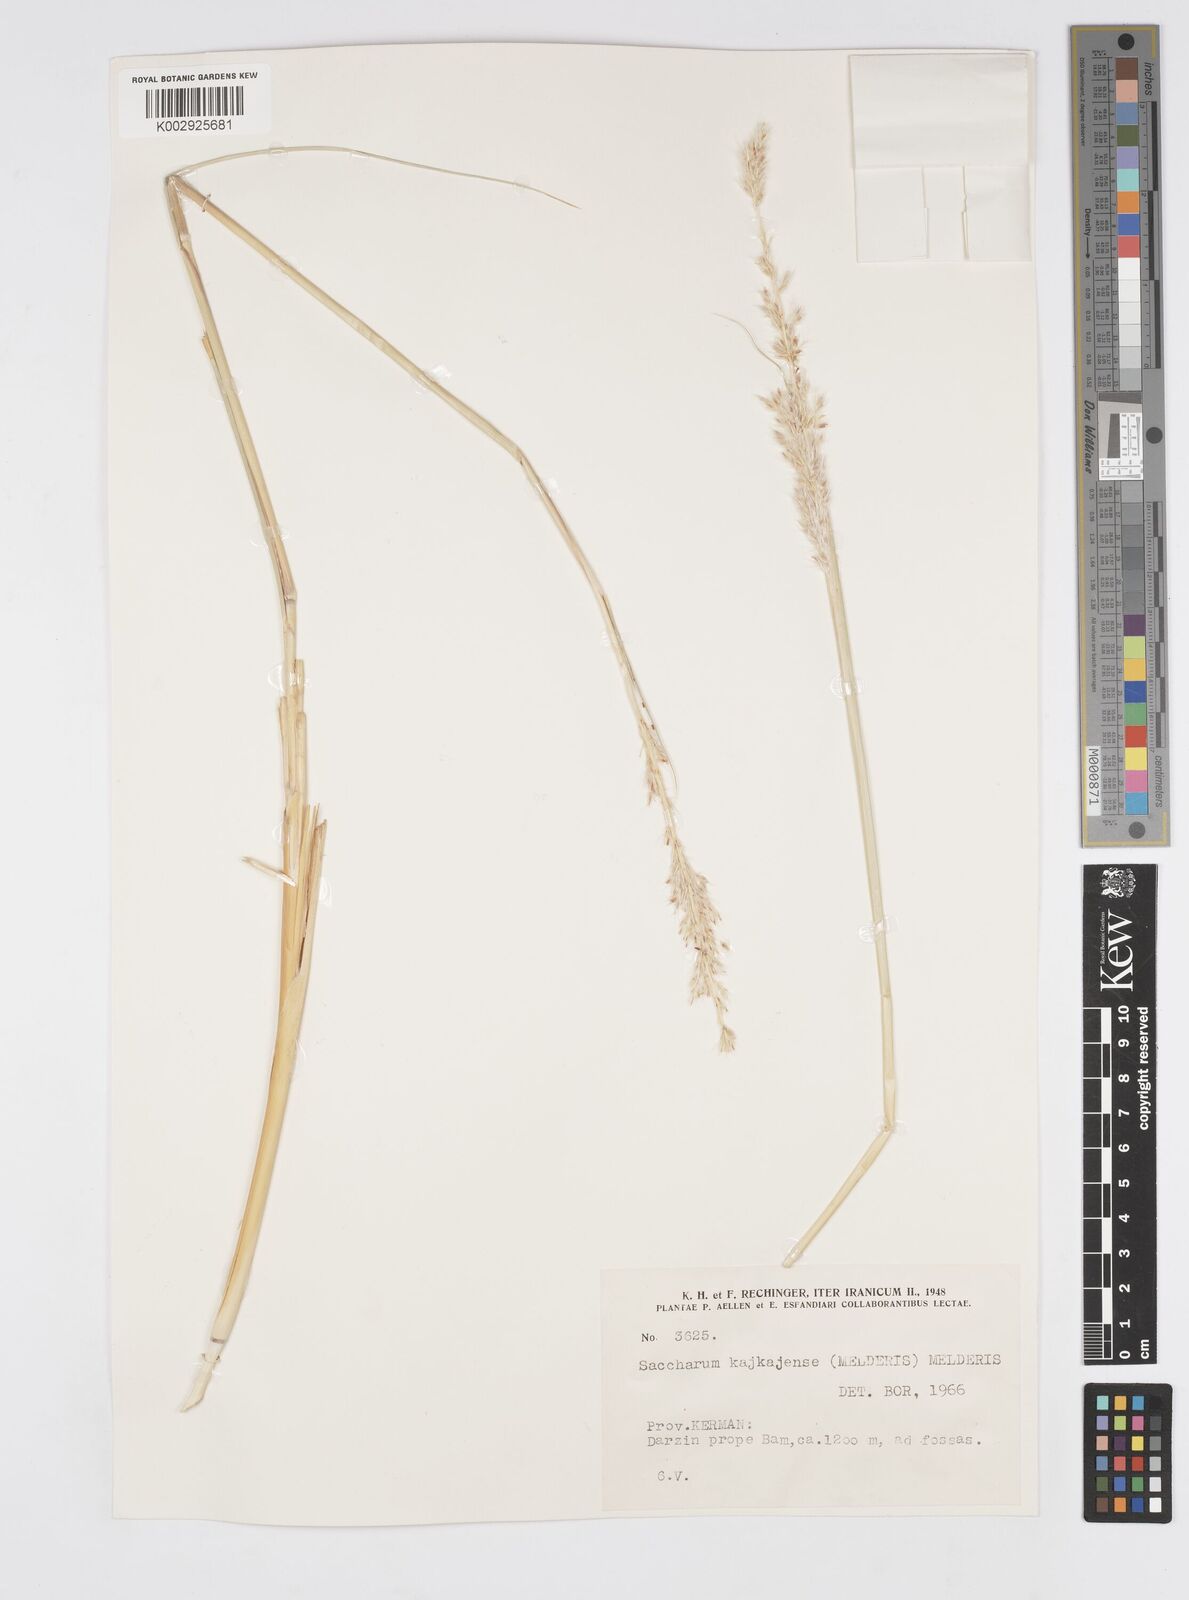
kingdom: Plantae
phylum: Tracheophyta
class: Liliopsida
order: Poales
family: Poaceae
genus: Saccharum
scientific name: Saccharum kajkaiense
